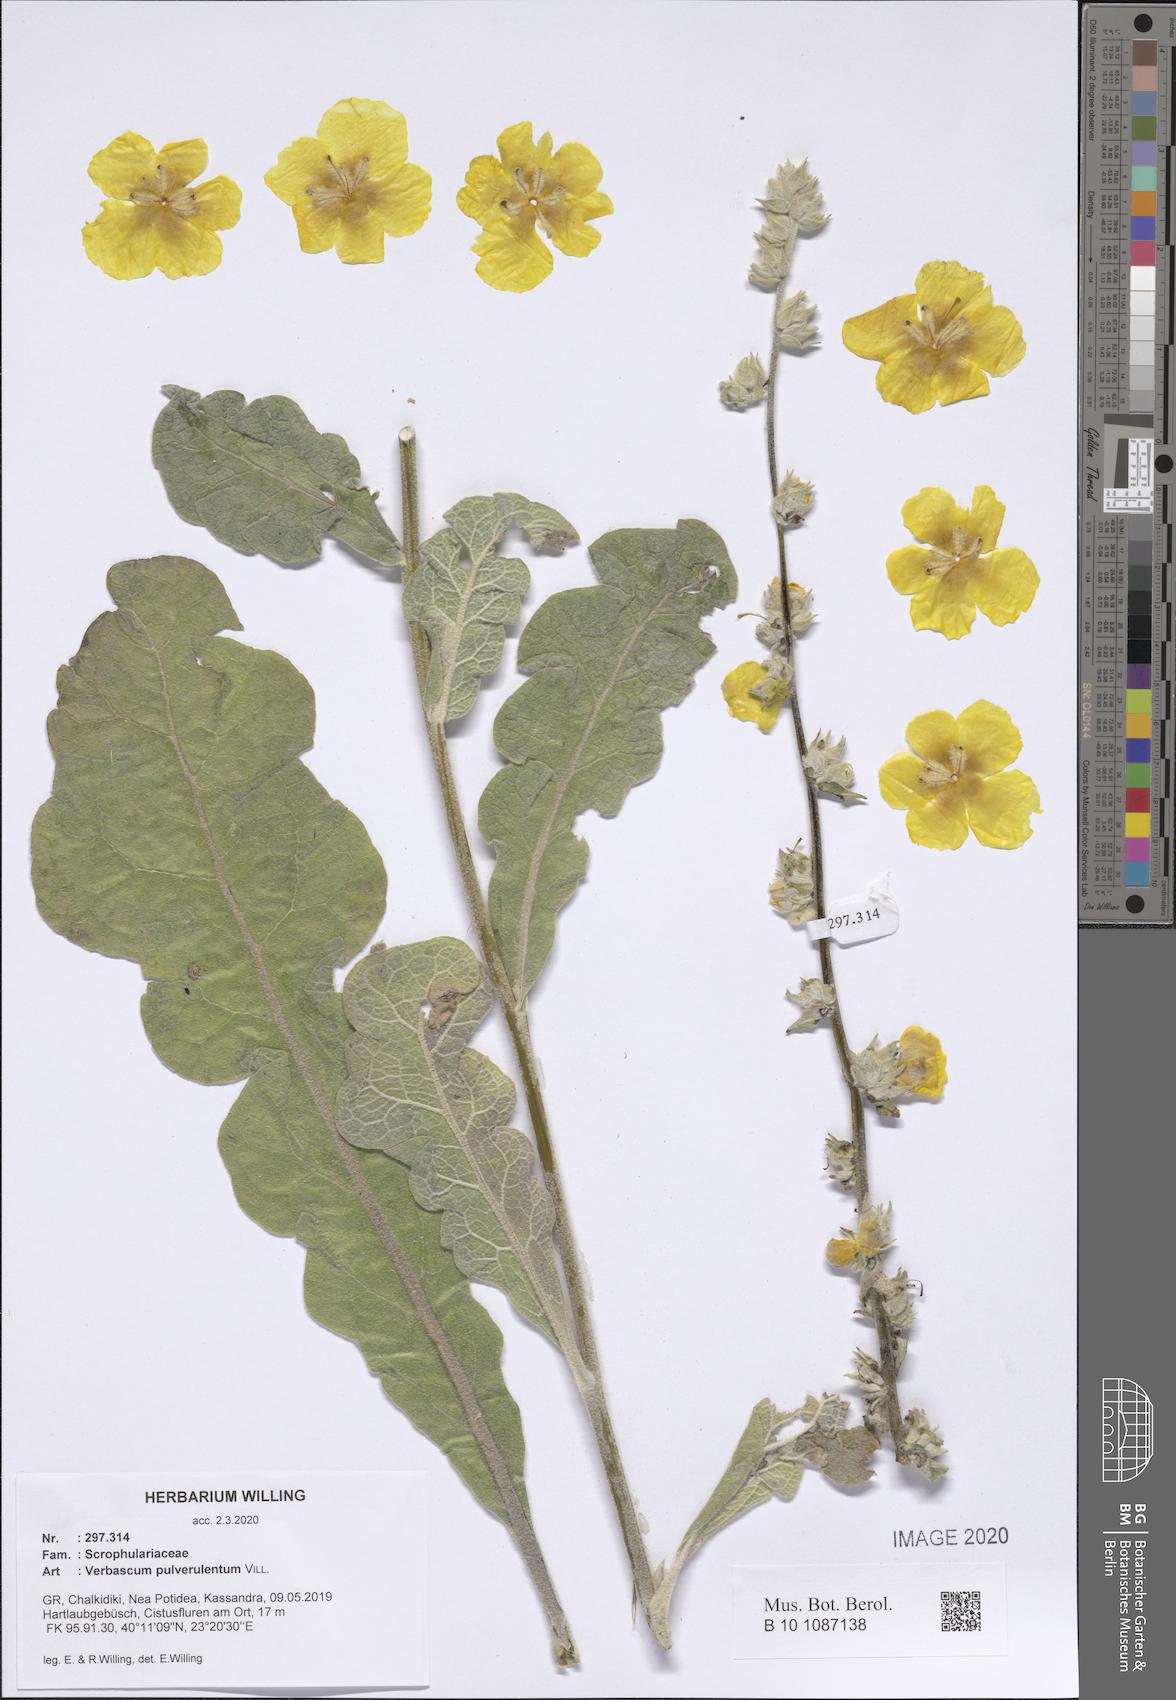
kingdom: Plantae
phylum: Tracheophyta
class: Magnoliopsida
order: Lamiales
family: Scrophulariaceae
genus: Verbascum
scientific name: Verbascum pulverulentum
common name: Broad-leaf mullein
